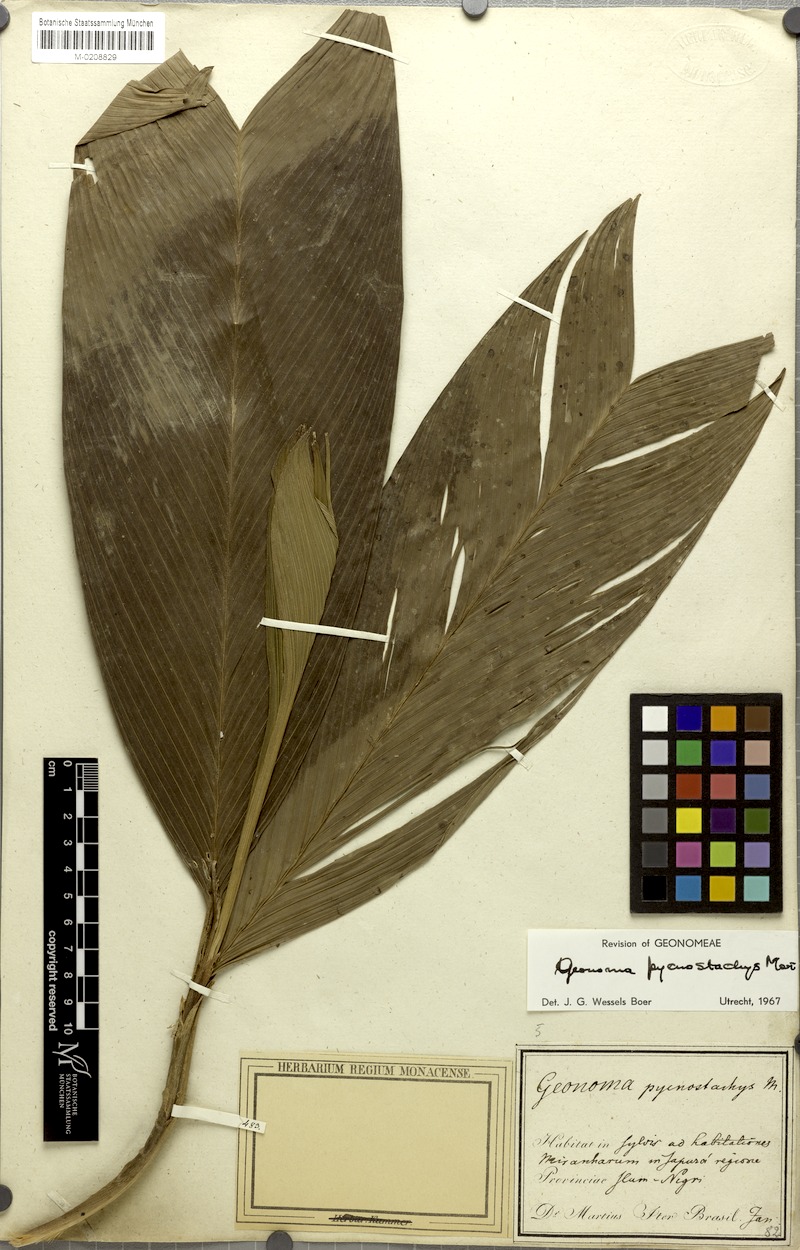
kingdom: Plantae
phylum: Tracheophyta
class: Liliopsida
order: Arecales
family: Arecaceae
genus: Geonoma
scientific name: Geonoma stricta
